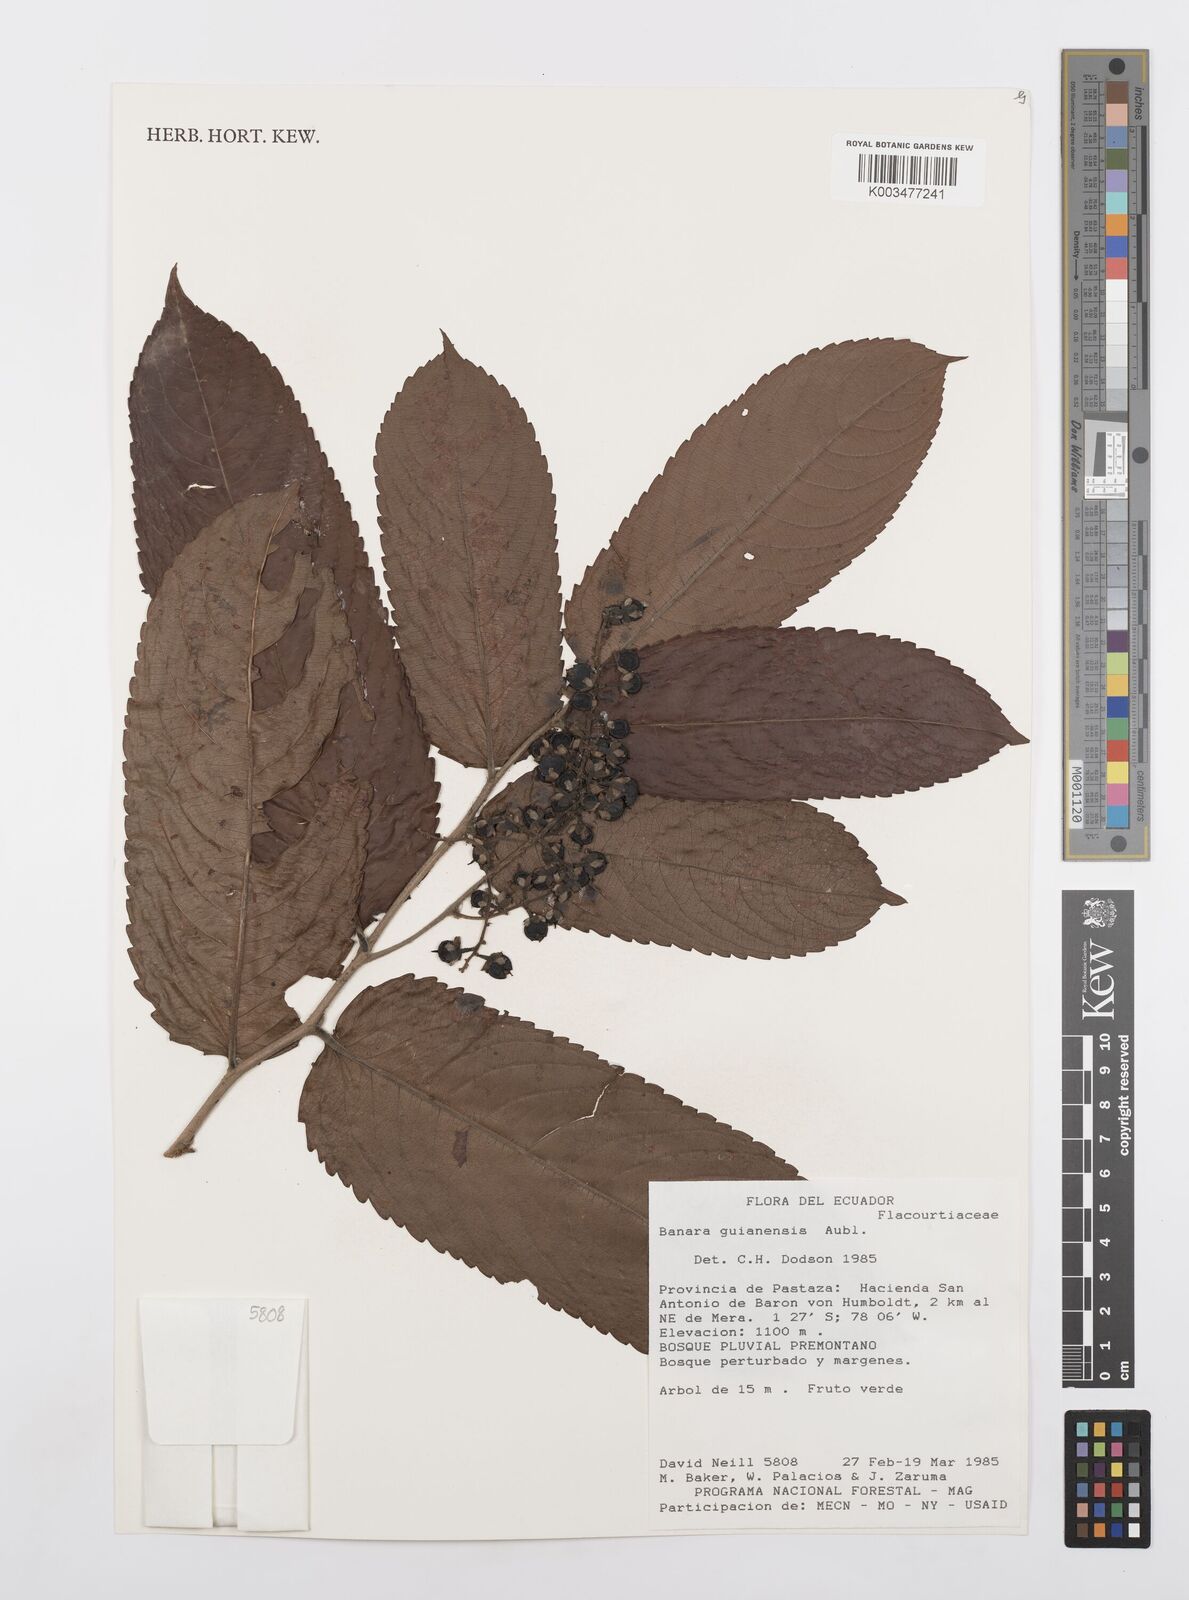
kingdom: Plantae
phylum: Tracheophyta
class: Magnoliopsida
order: Malpighiales
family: Salicaceae
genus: Banara
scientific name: Banara guianensis
